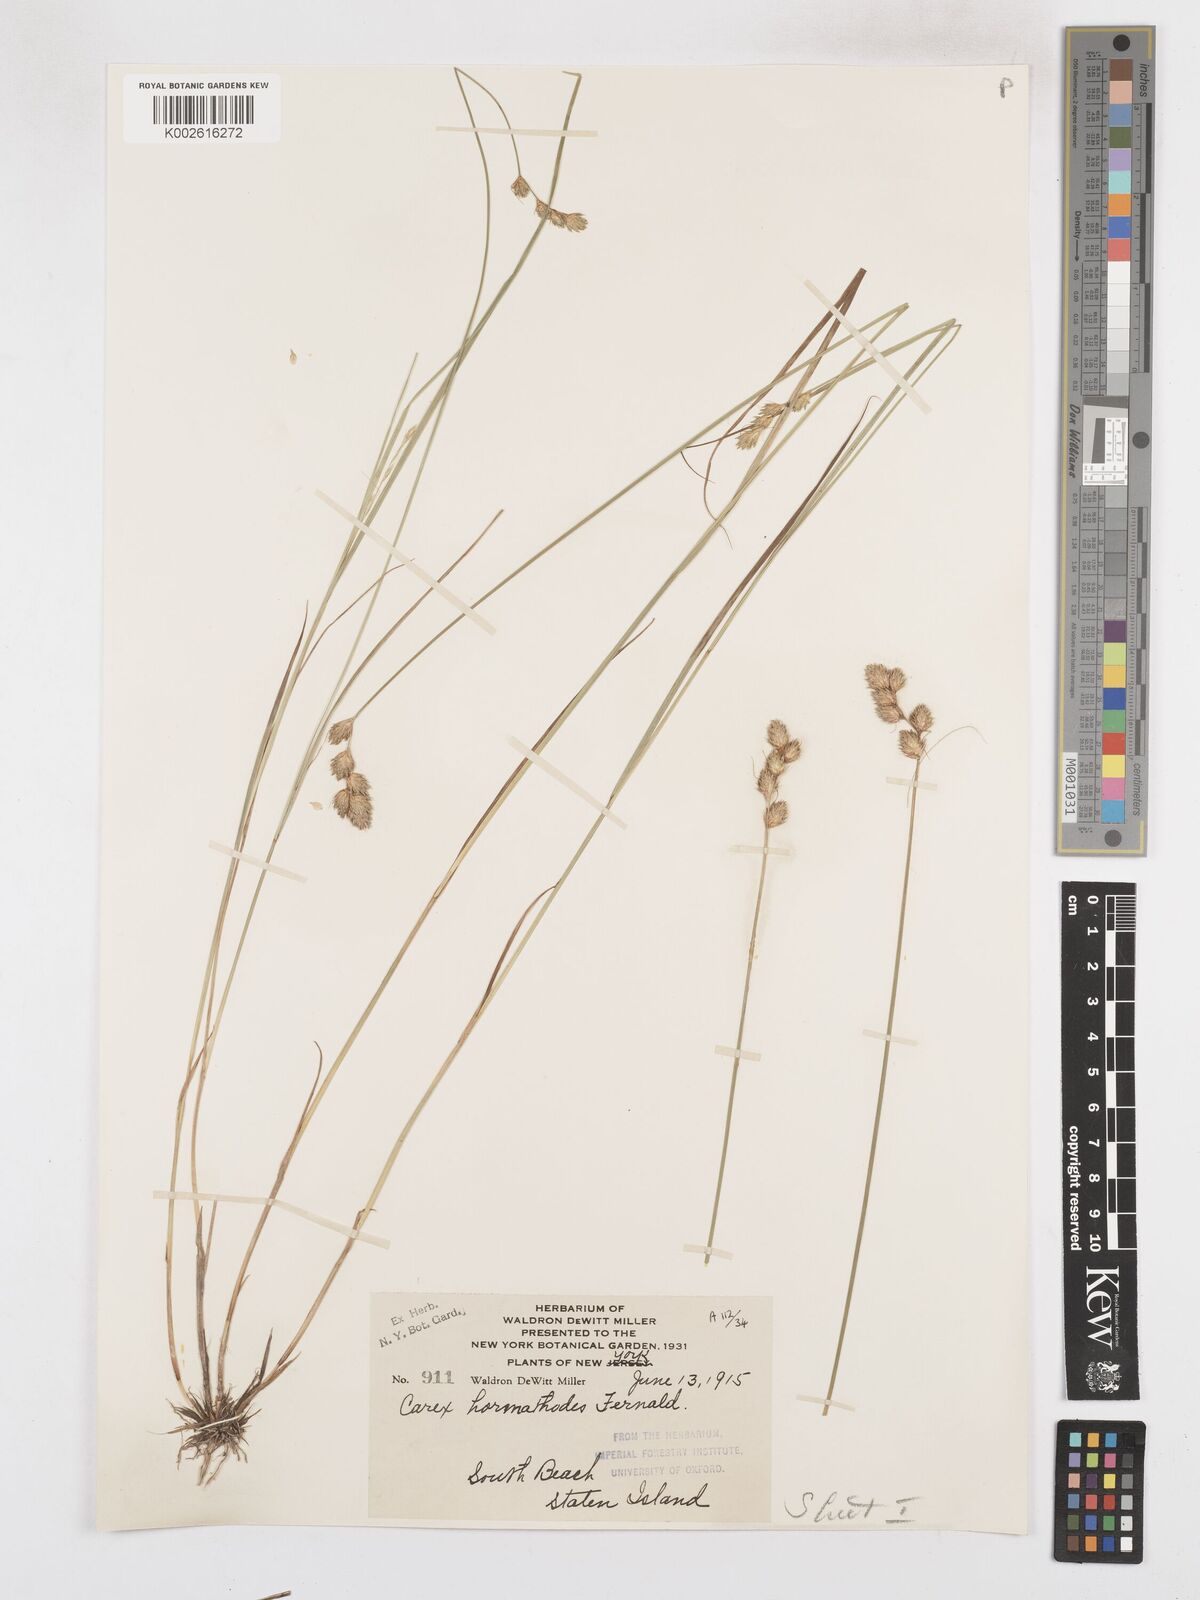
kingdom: Plantae
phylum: Tracheophyta
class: Liliopsida
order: Poales
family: Cyperaceae
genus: Carex
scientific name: Carex hormathodes
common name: Marsh straw sedge
